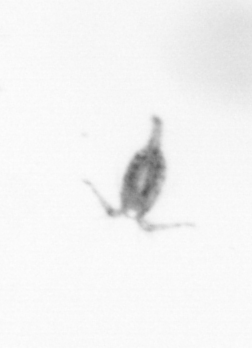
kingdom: Animalia
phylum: Arthropoda
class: Copepoda
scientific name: Copepoda
